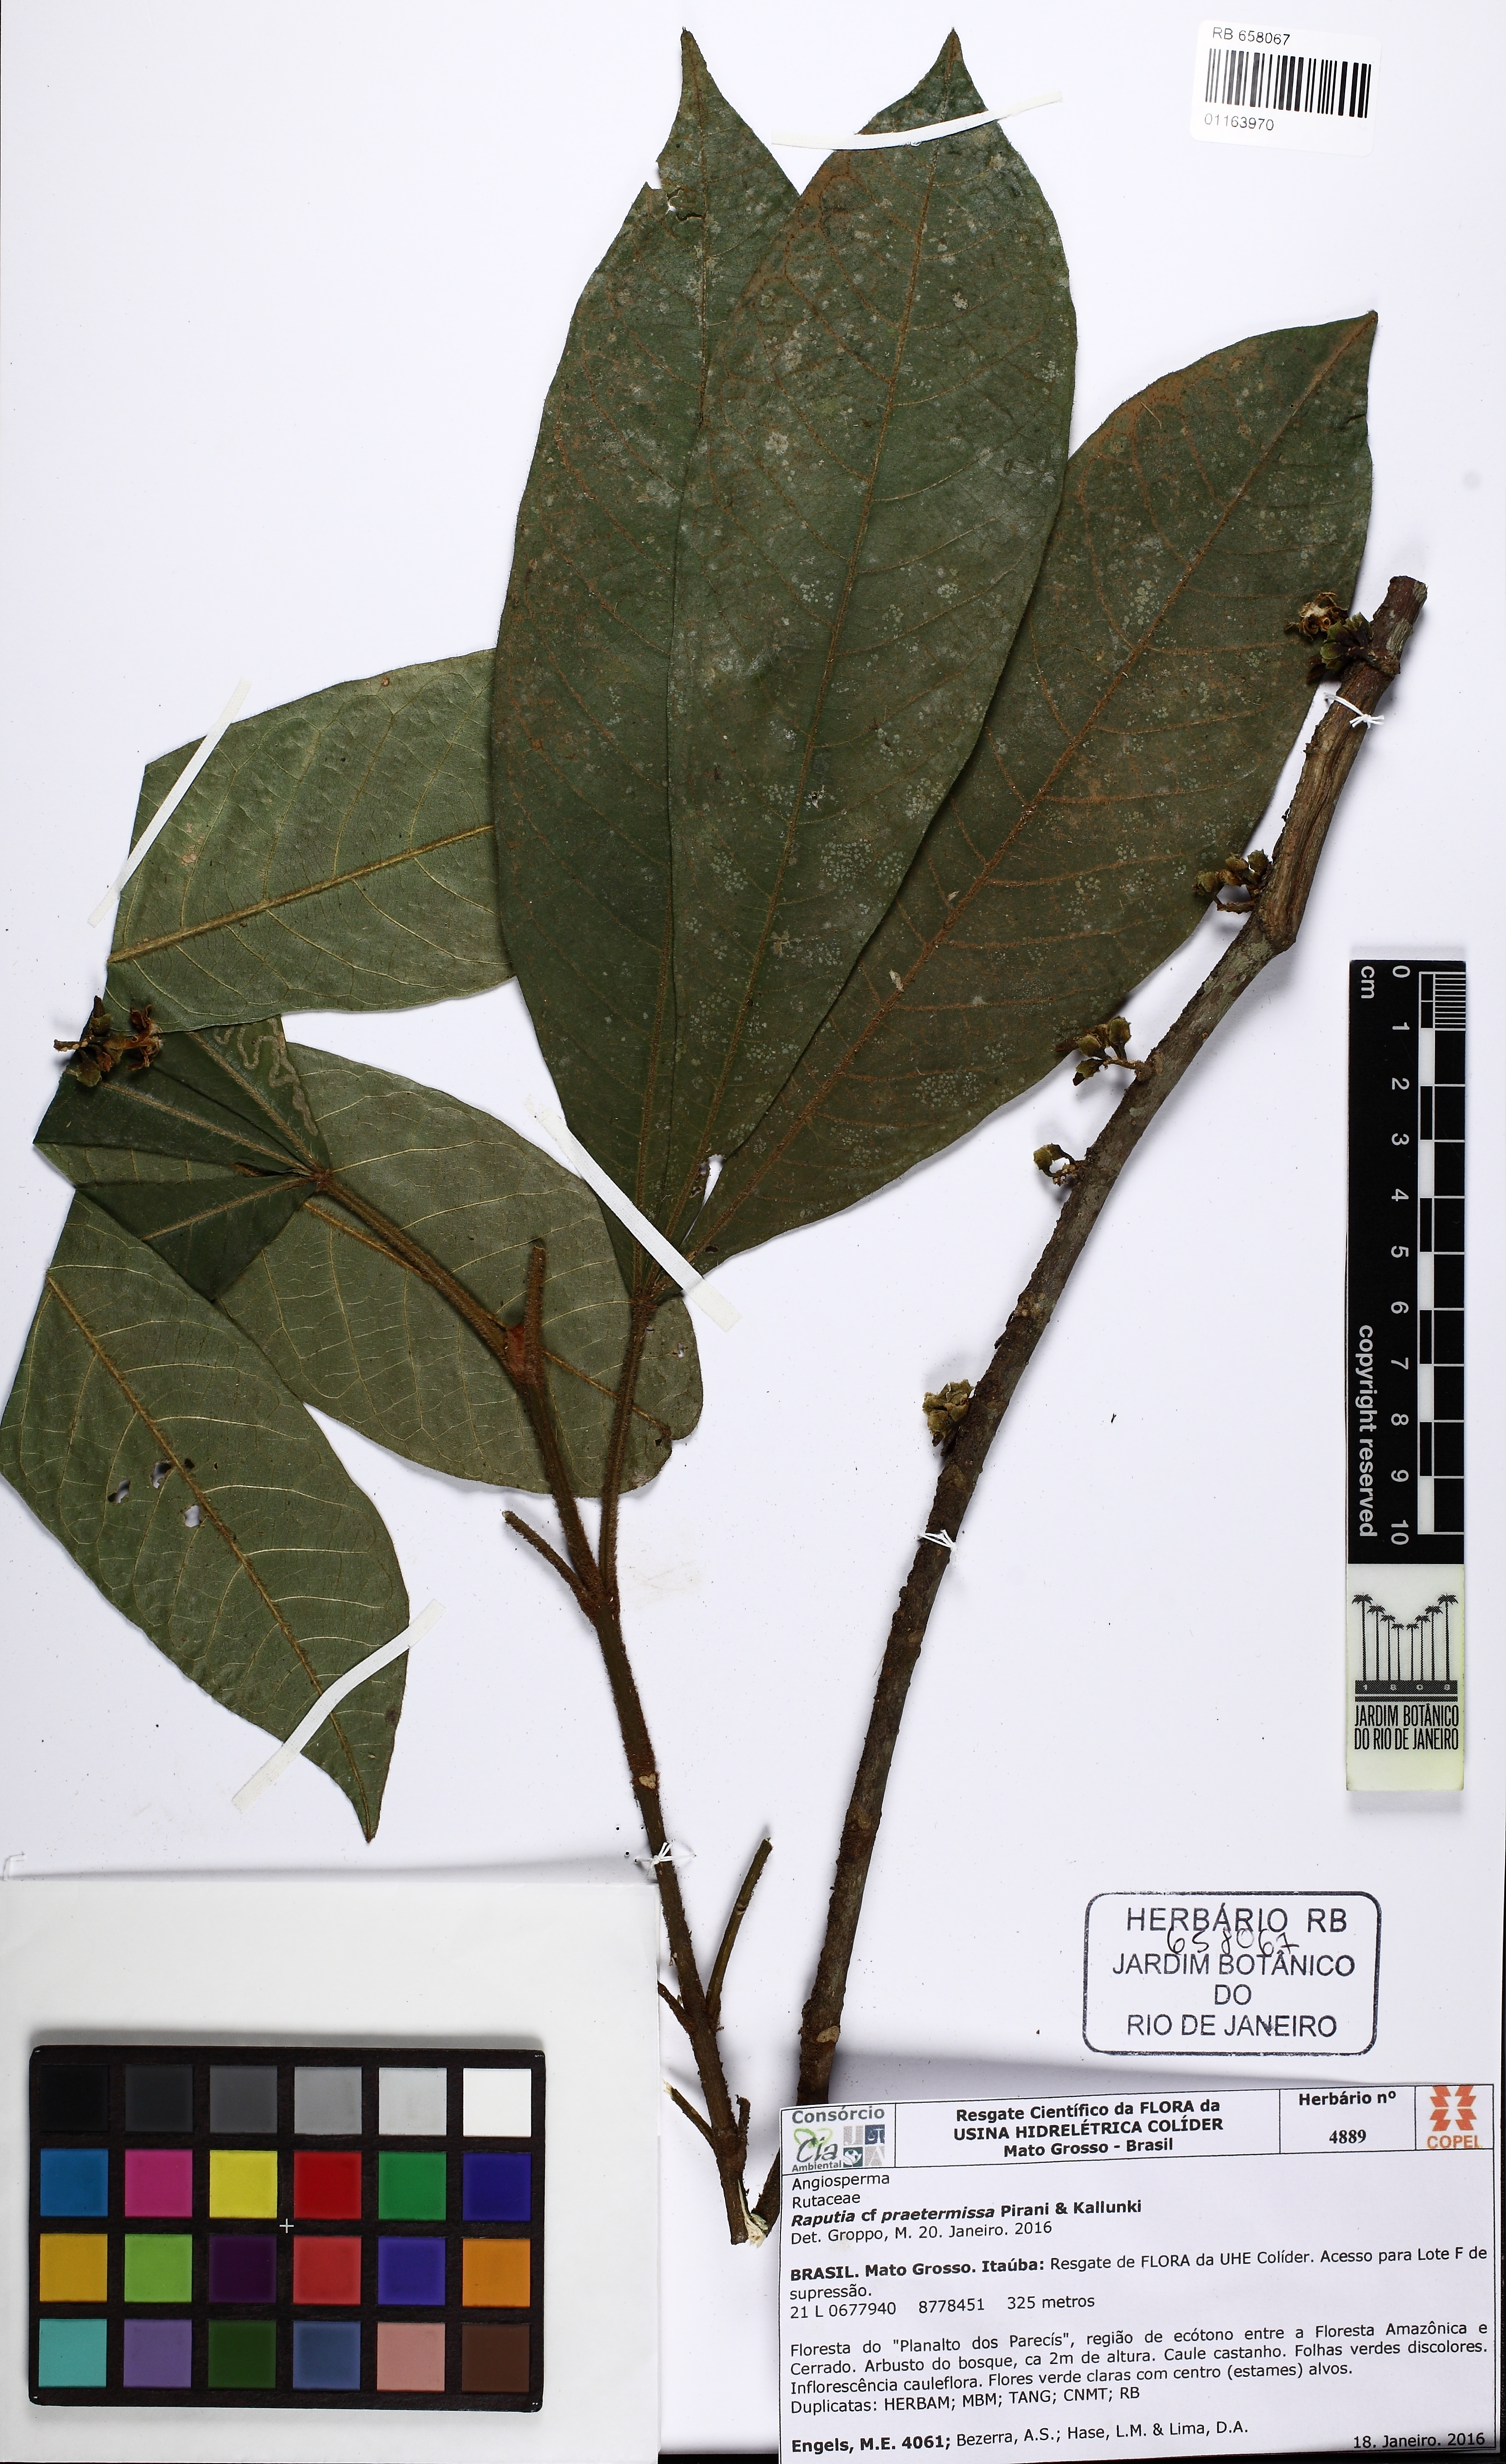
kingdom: Plantae
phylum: Tracheophyta
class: Magnoliopsida
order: Sapindales
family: Rutaceae
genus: Raputia
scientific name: Raputia praetermissa
